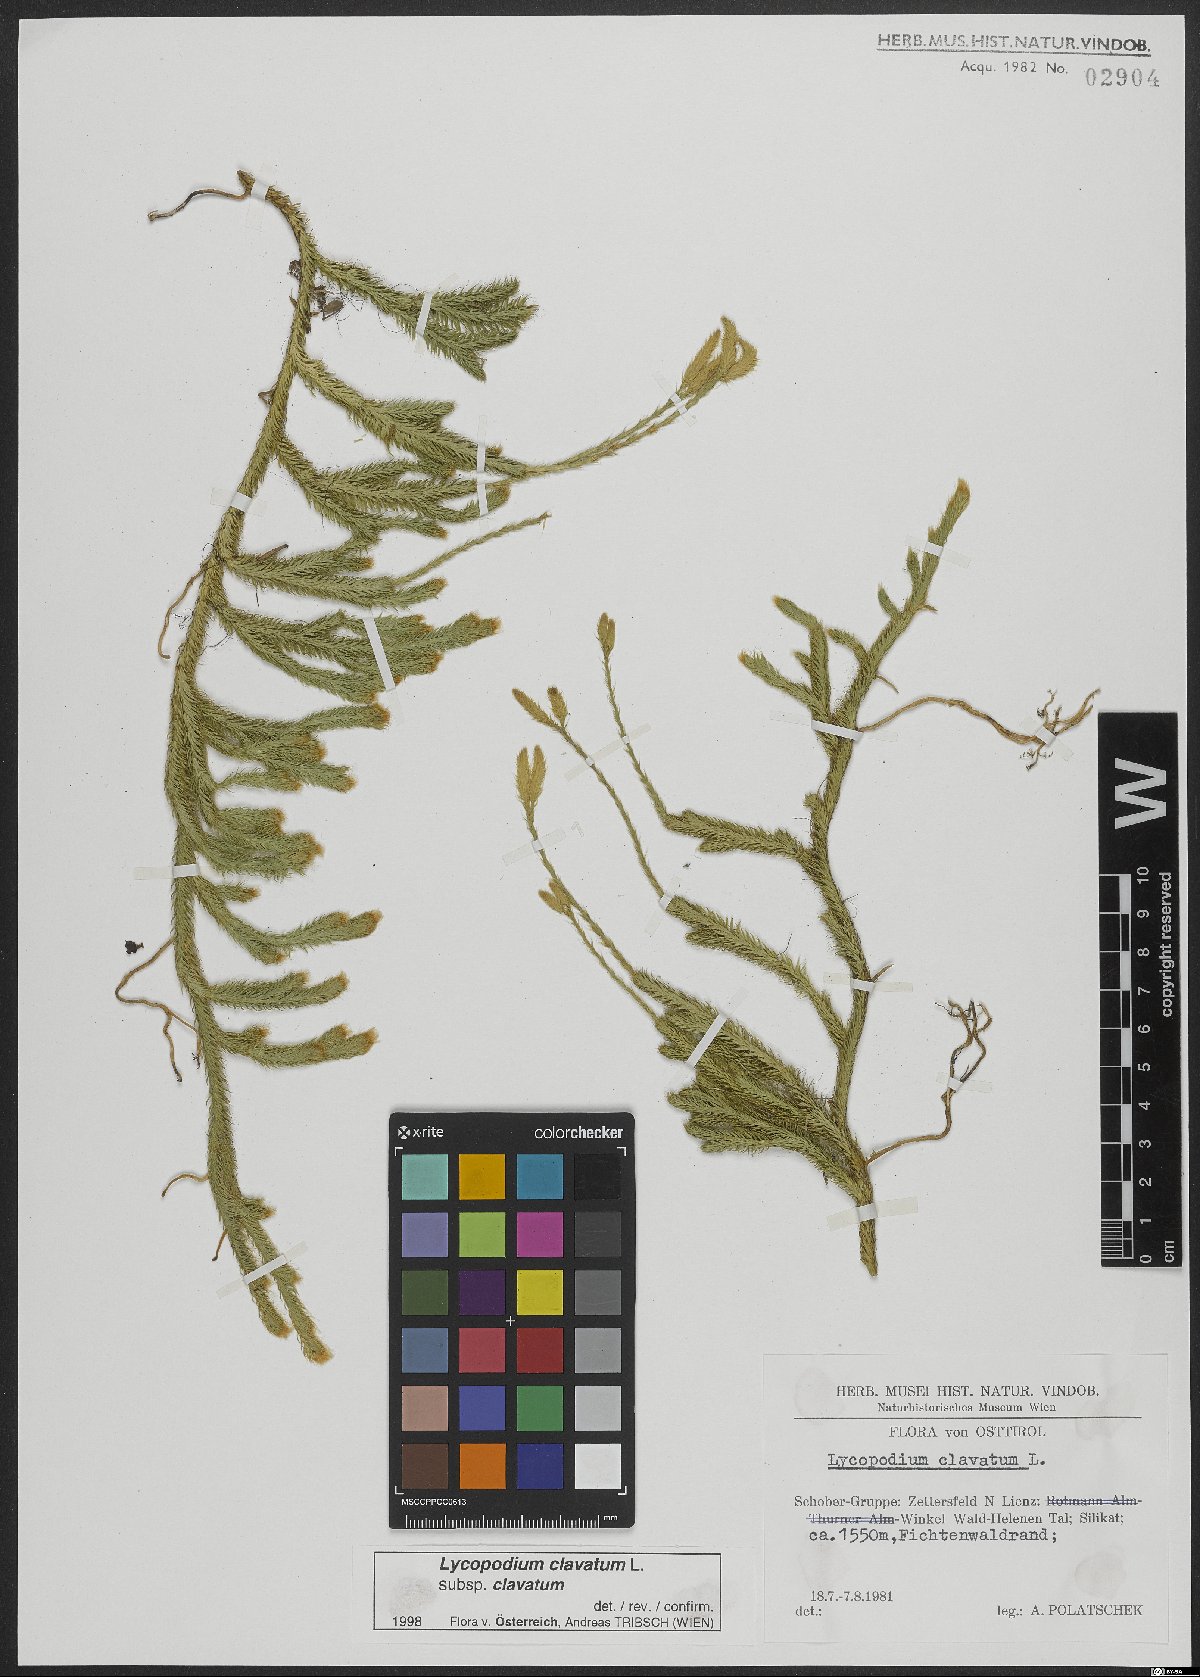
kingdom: Plantae
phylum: Tracheophyta
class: Lycopodiopsida
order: Lycopodiales
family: Lycopodiaceae
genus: Lycopodium
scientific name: Lycopodium clavatum
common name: Stag's-horn clubmoss
